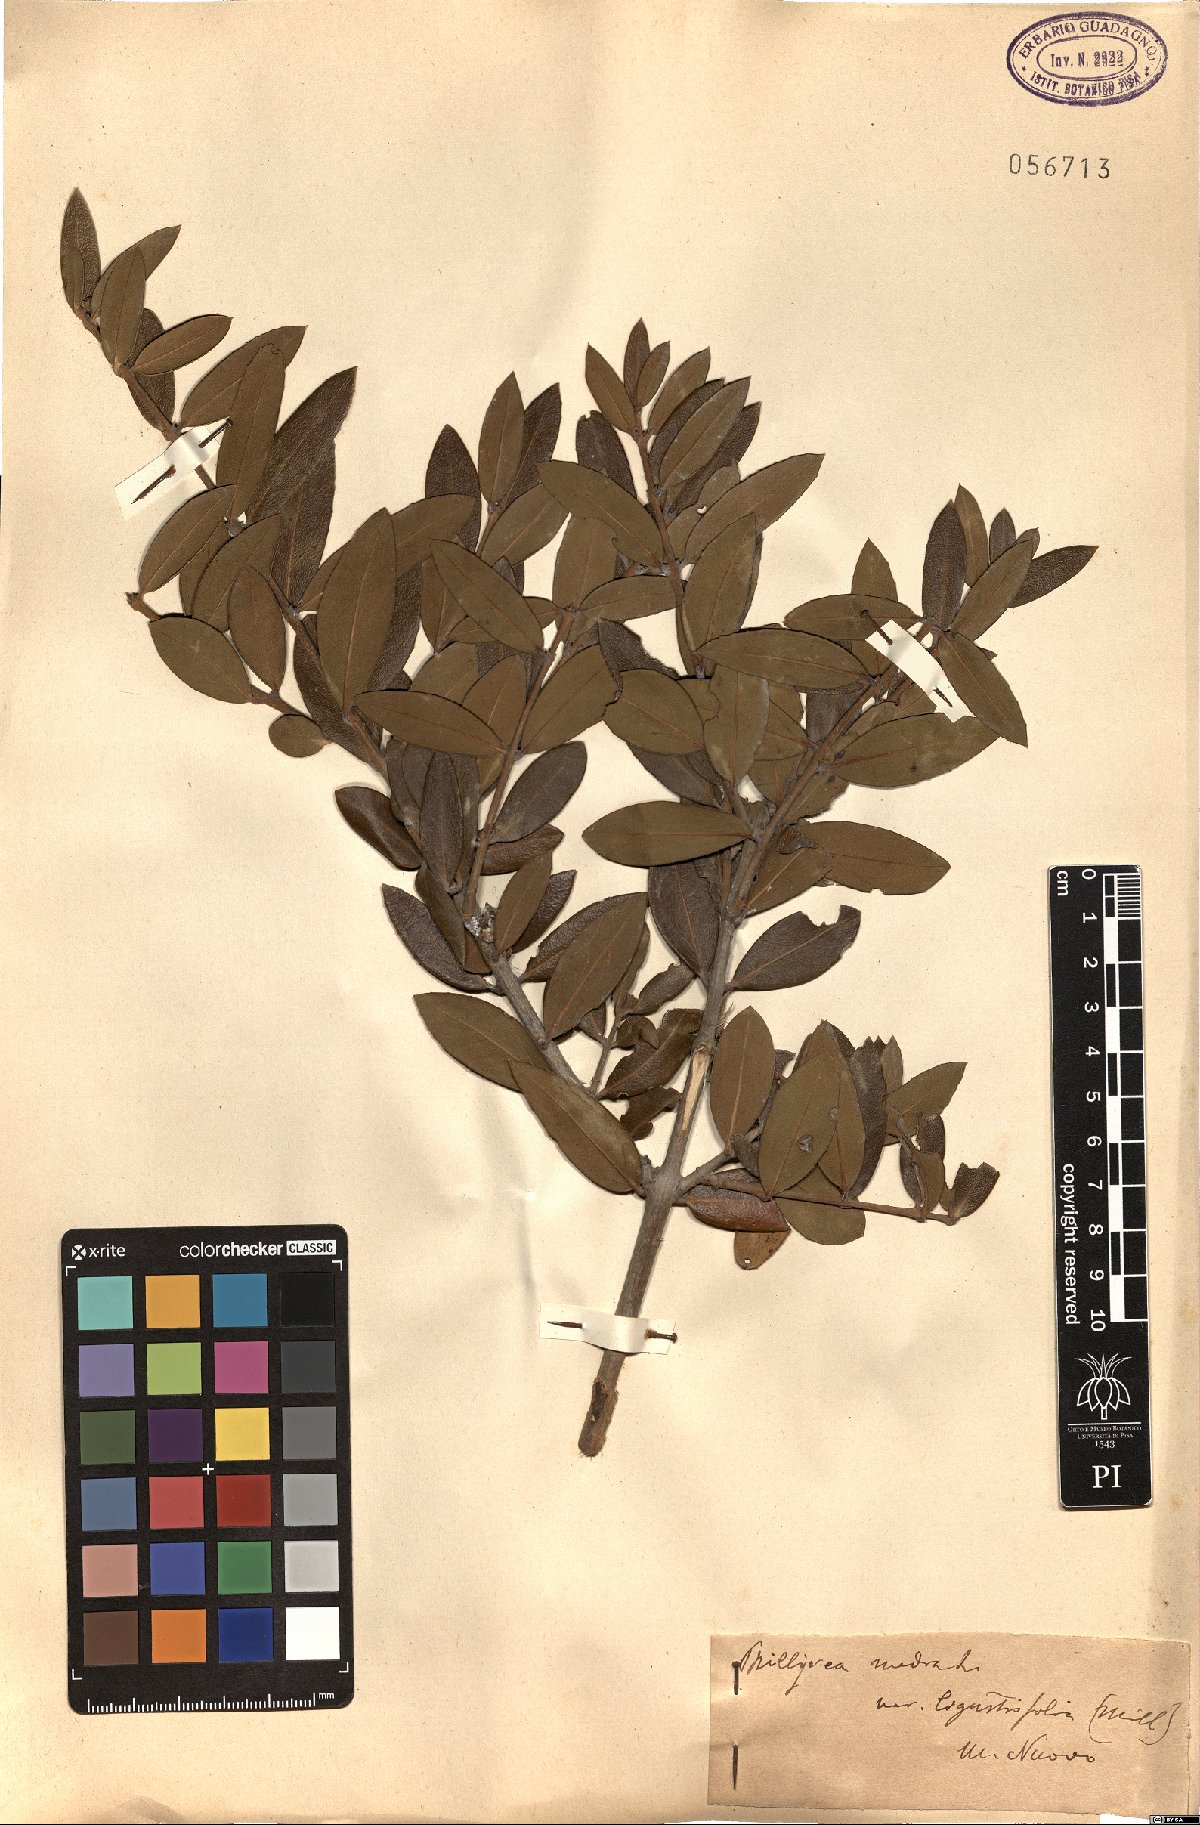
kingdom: Plantae
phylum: Tracheophyta
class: Magnoliopsida
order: Lamiales
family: Oleaceae
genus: Phillyrea
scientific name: Phillyrea latifolia
